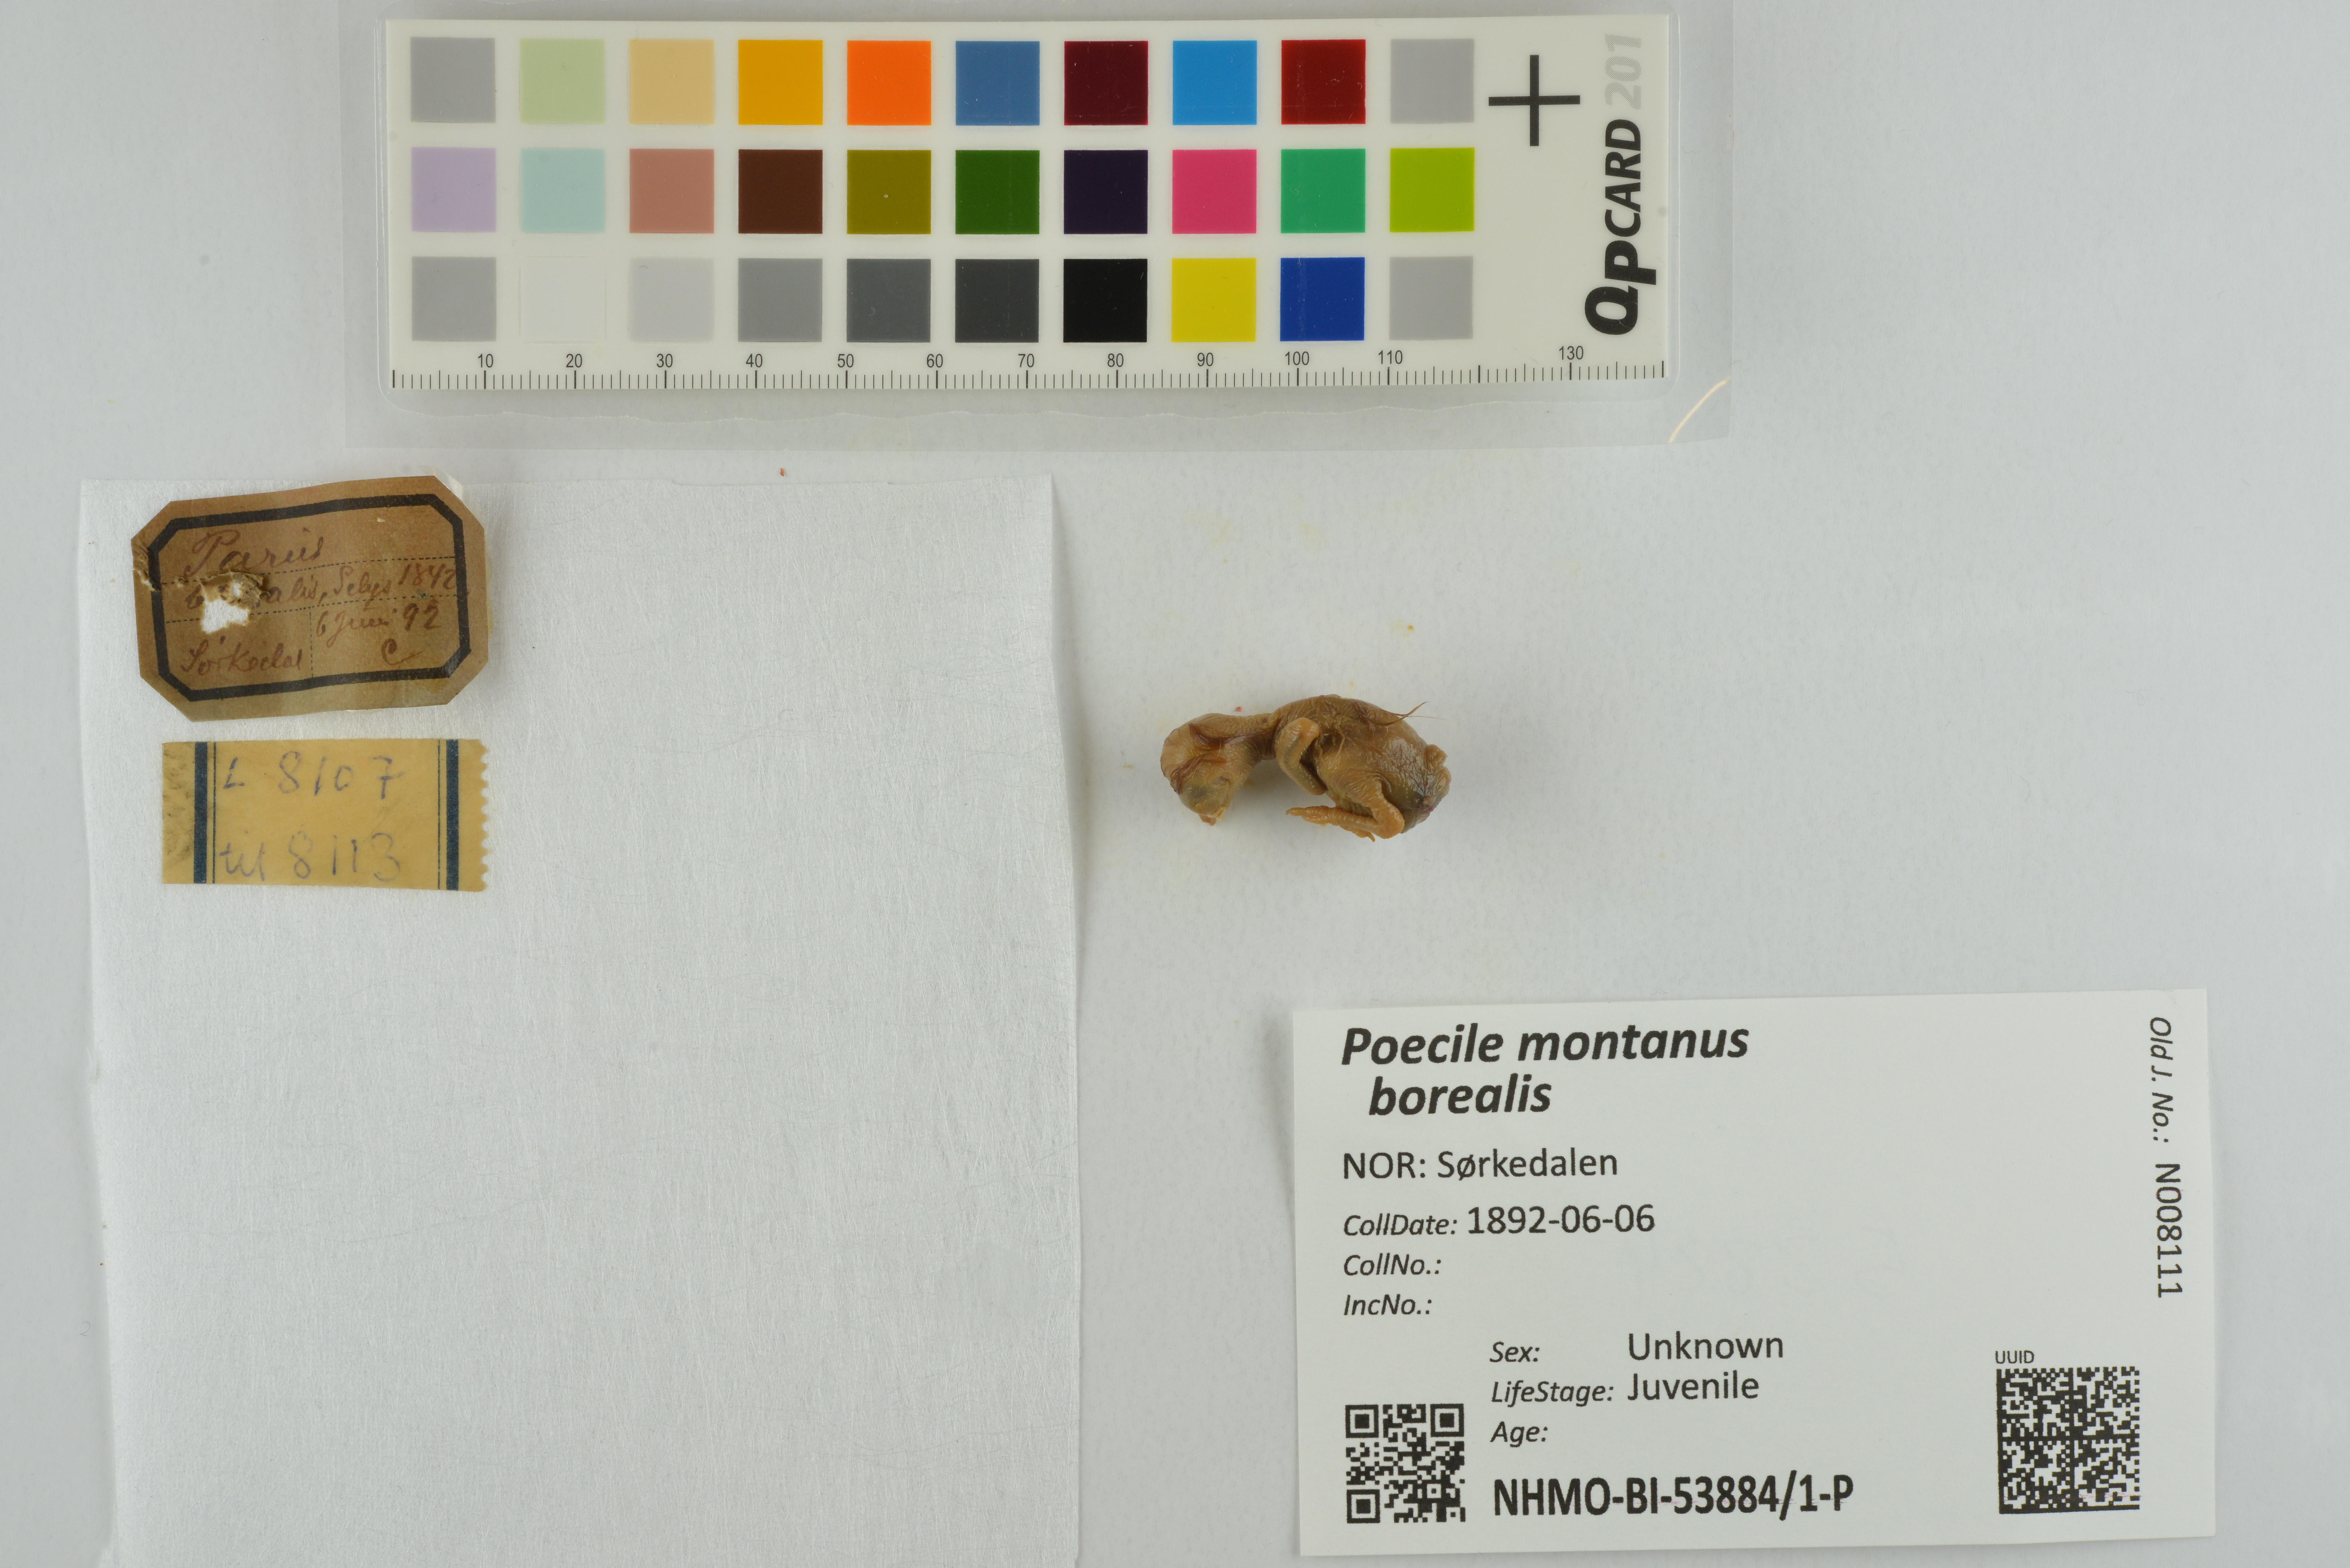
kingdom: Animalia
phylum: Chordata
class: Aves
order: Passeriformes
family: Paridae
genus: Poecile
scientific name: Poecile montanus
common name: Willow tit
